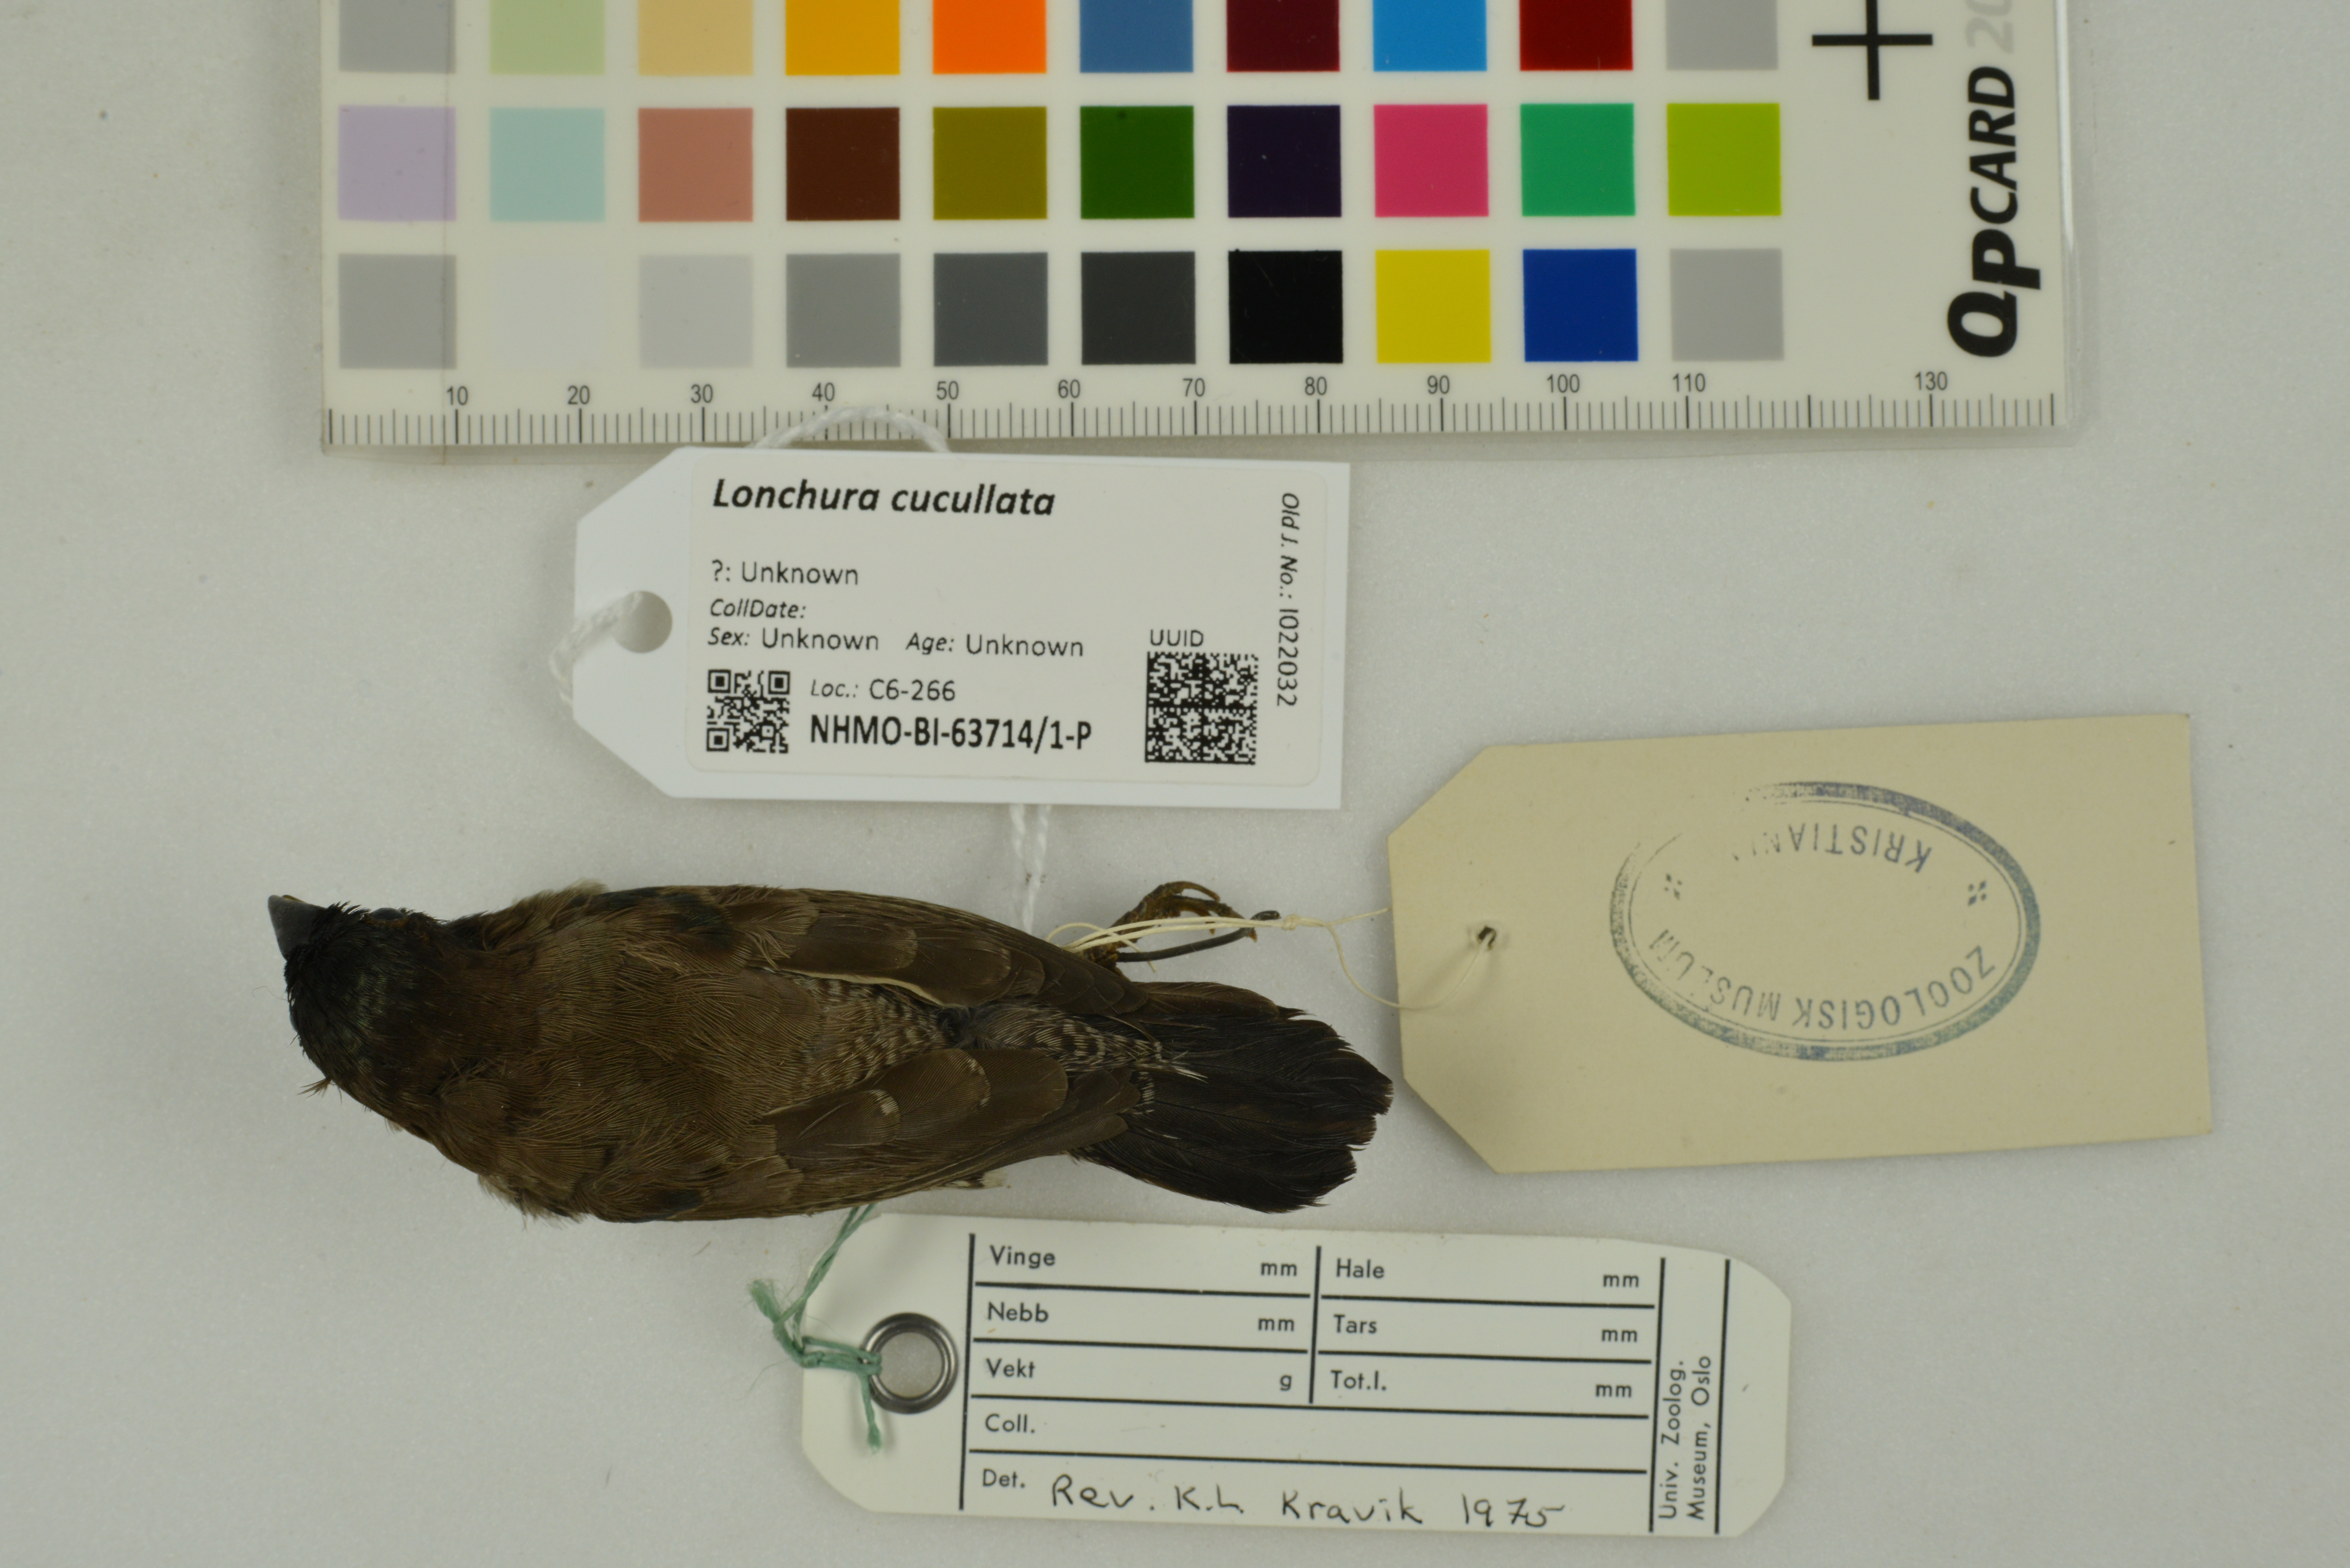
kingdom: Animalia
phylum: Chordata
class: Aves
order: Passeriformes
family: Estrildidae
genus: Lonchura
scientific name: Lonchura cucullata
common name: Bronze mannikin
